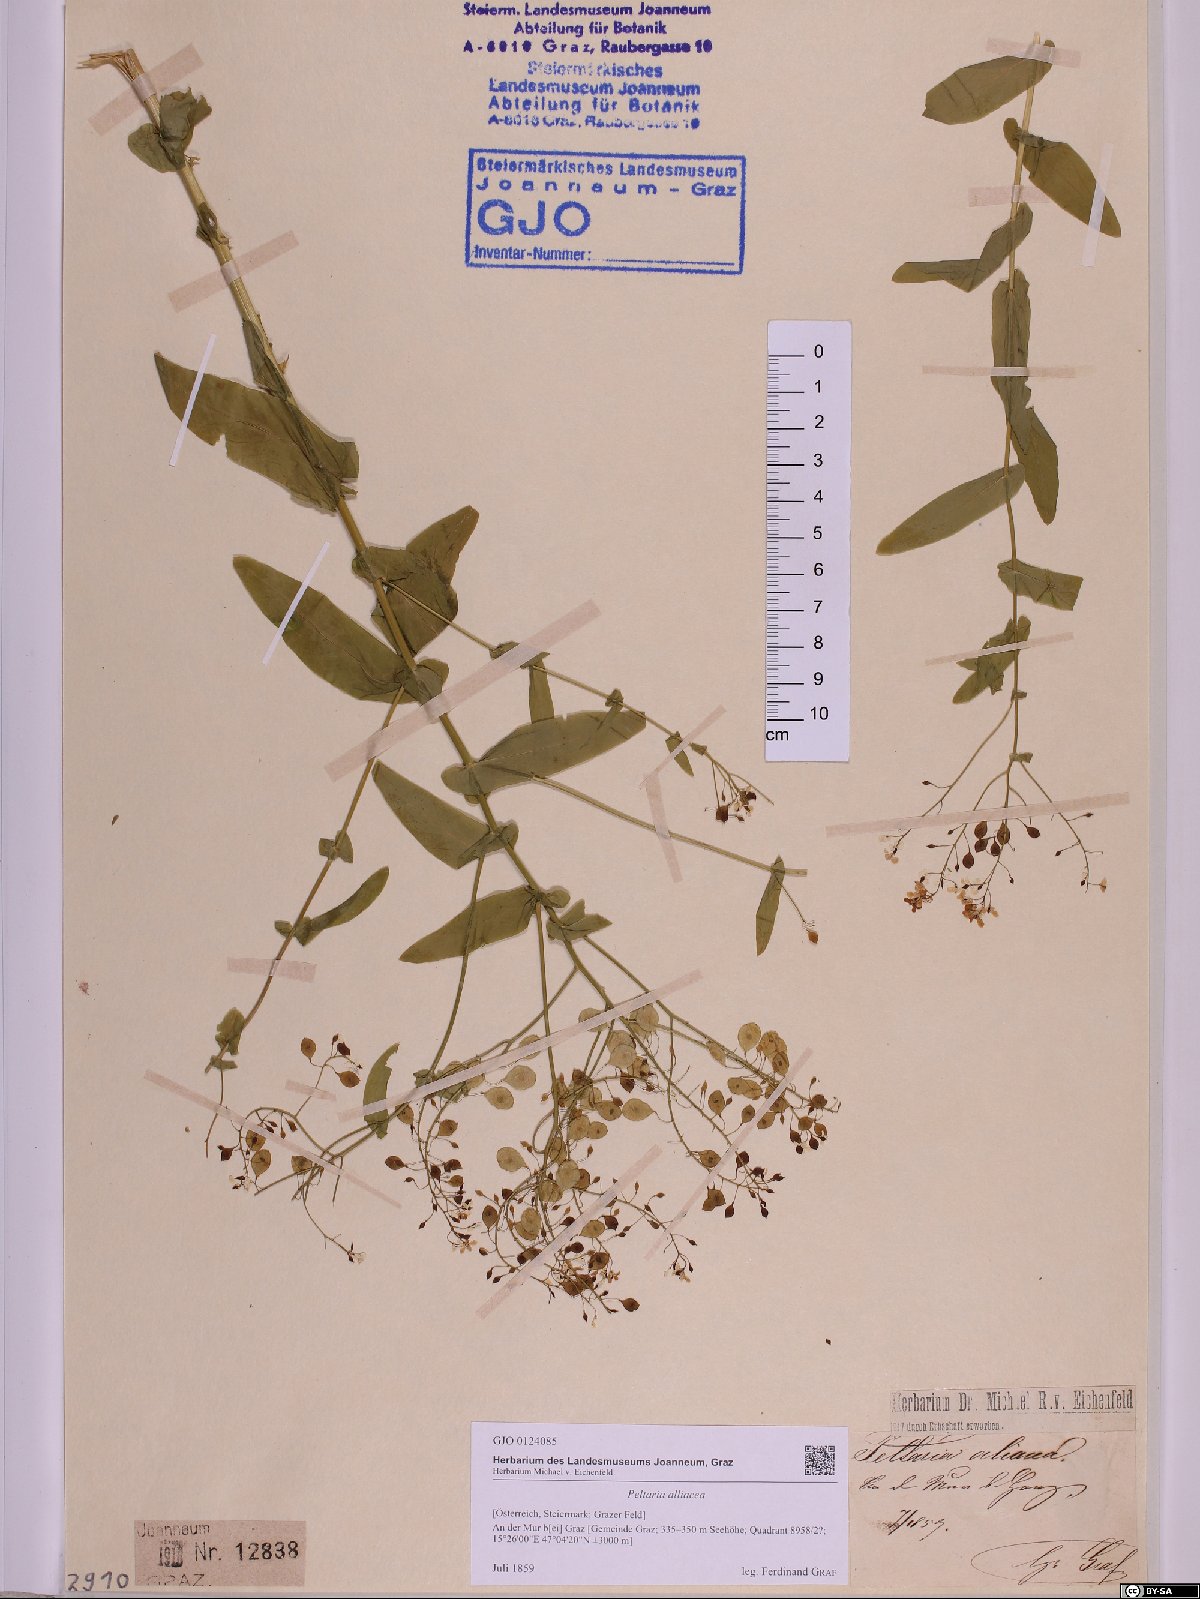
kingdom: Plantae
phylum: Tracheophyta
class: Magnoliopsida
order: Brassicales
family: Brassicaceae
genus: Peltaria
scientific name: Peltaria alliacea
